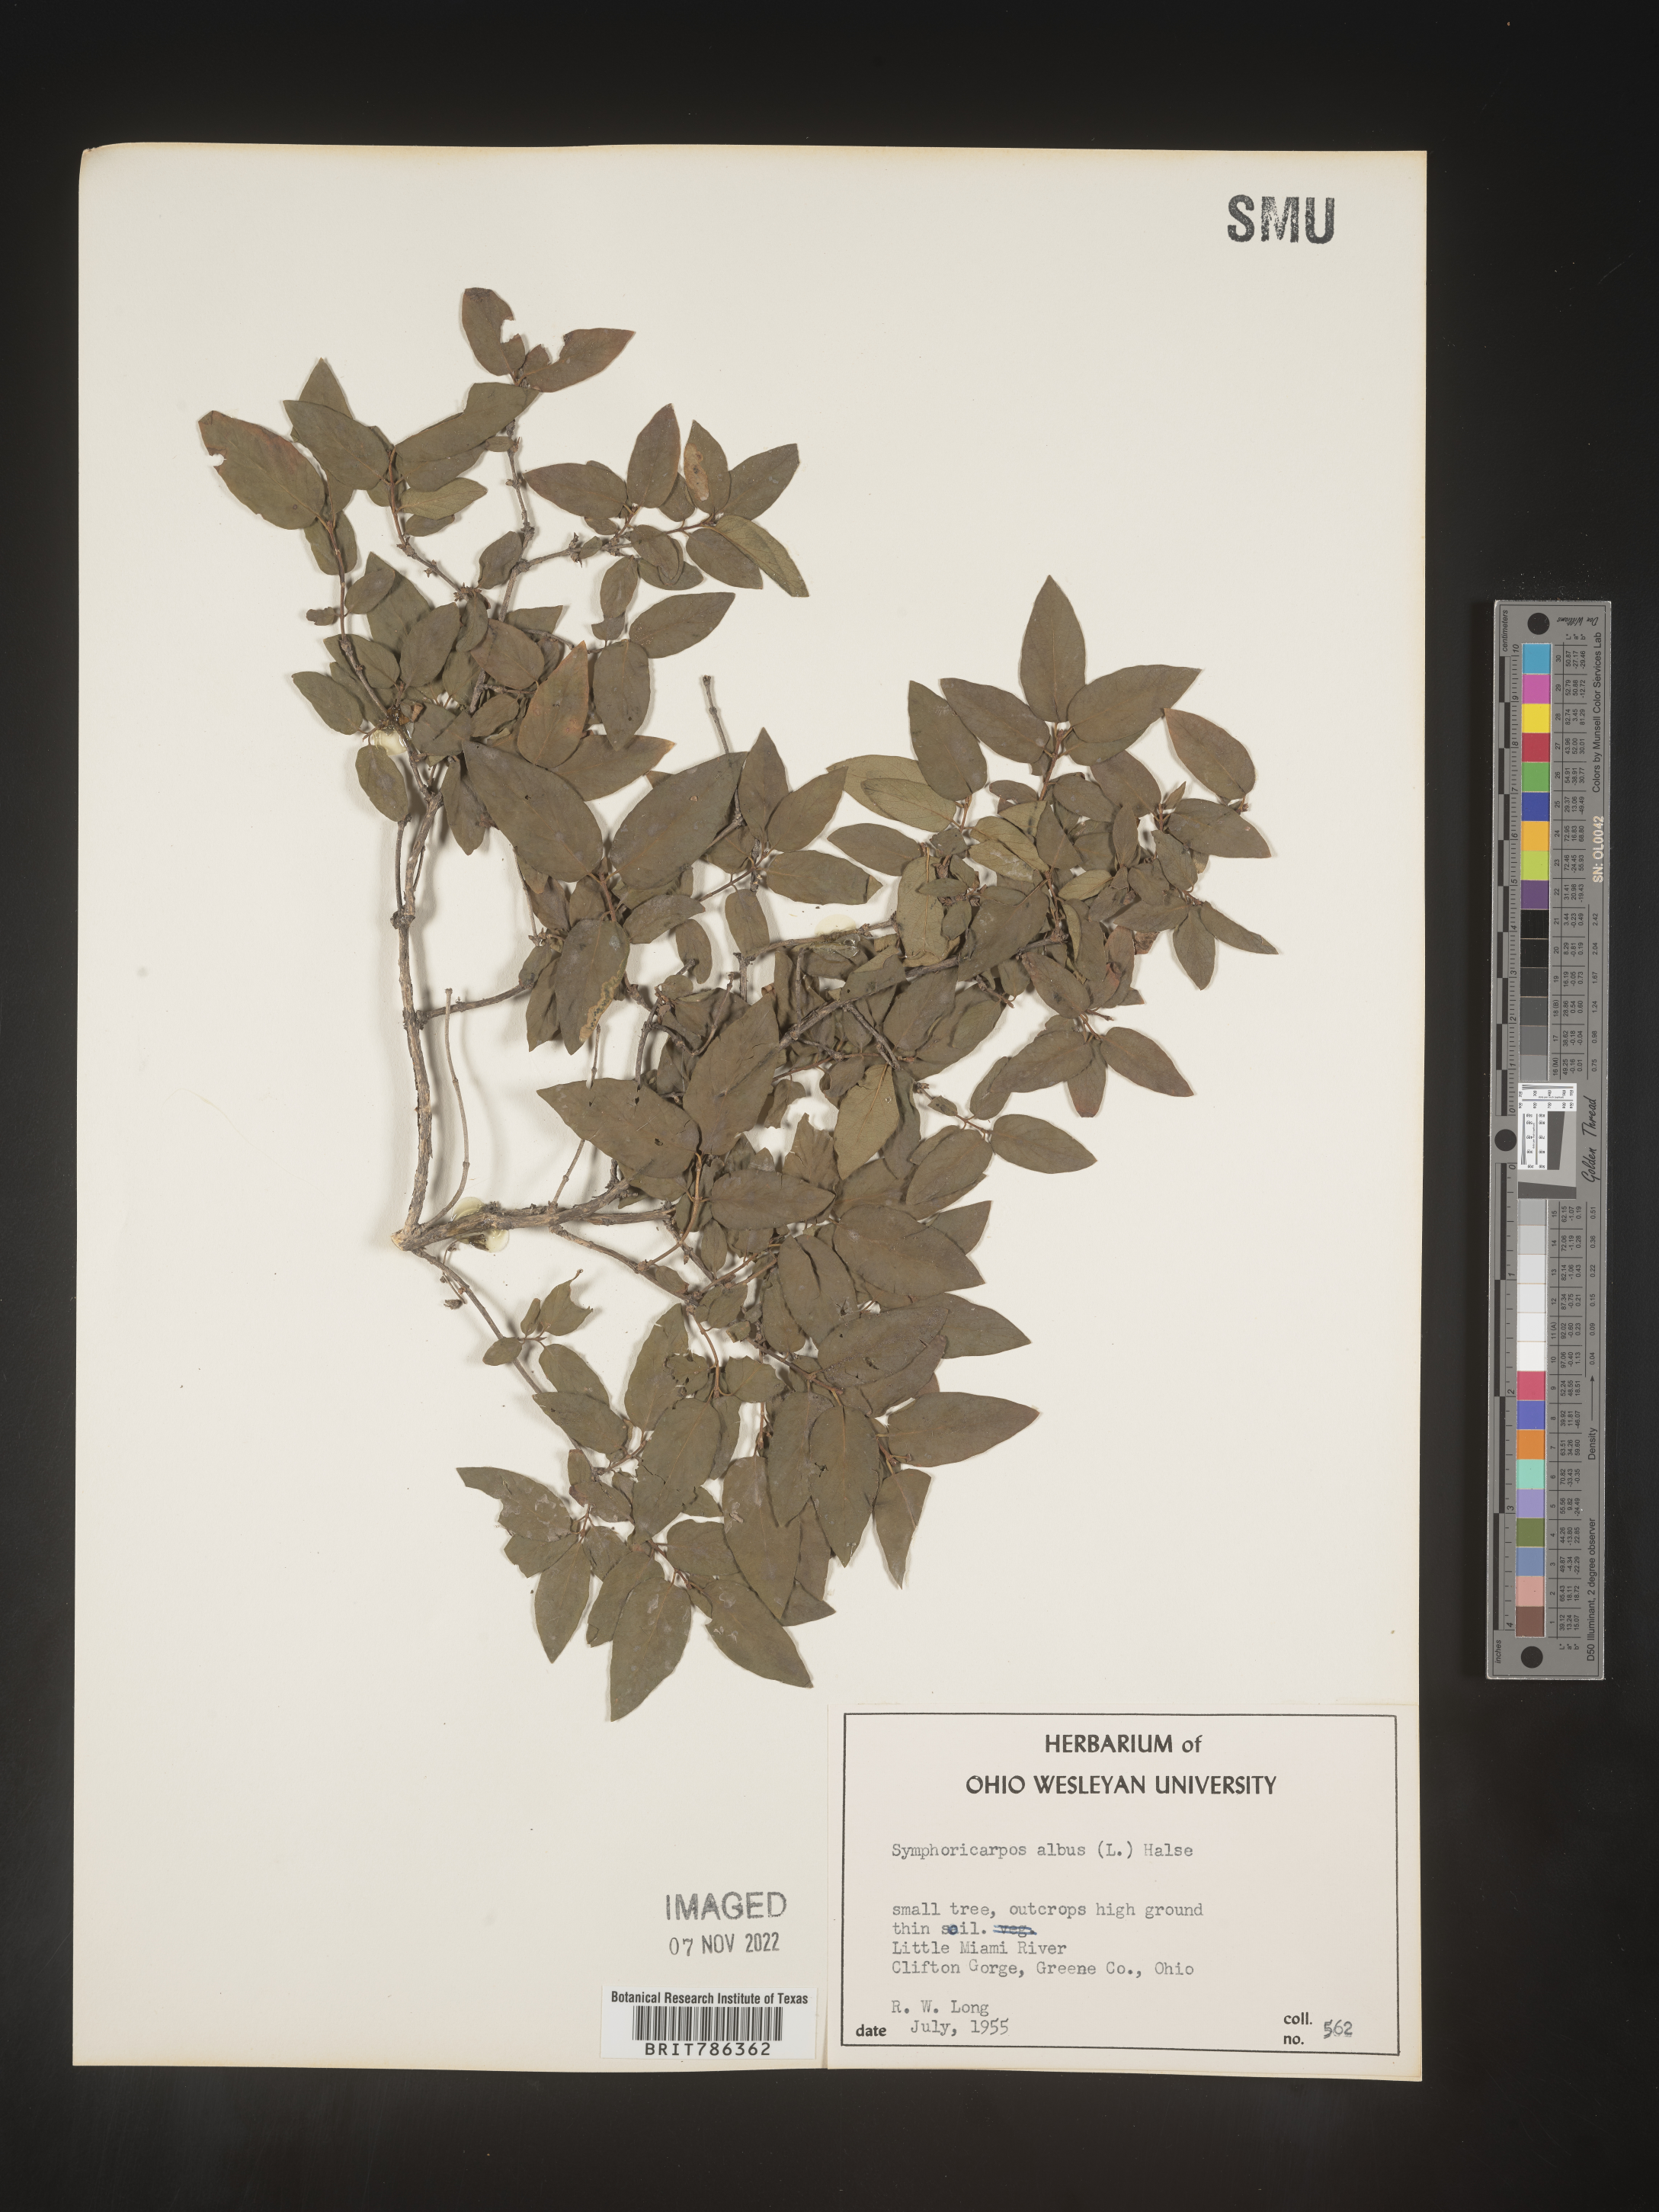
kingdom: Plantae
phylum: Tracheophyta
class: Magnoliopsida
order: Dipsacales
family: Caprifoliaceae
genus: Symphoricarpos
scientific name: Symphoricarpos albus
